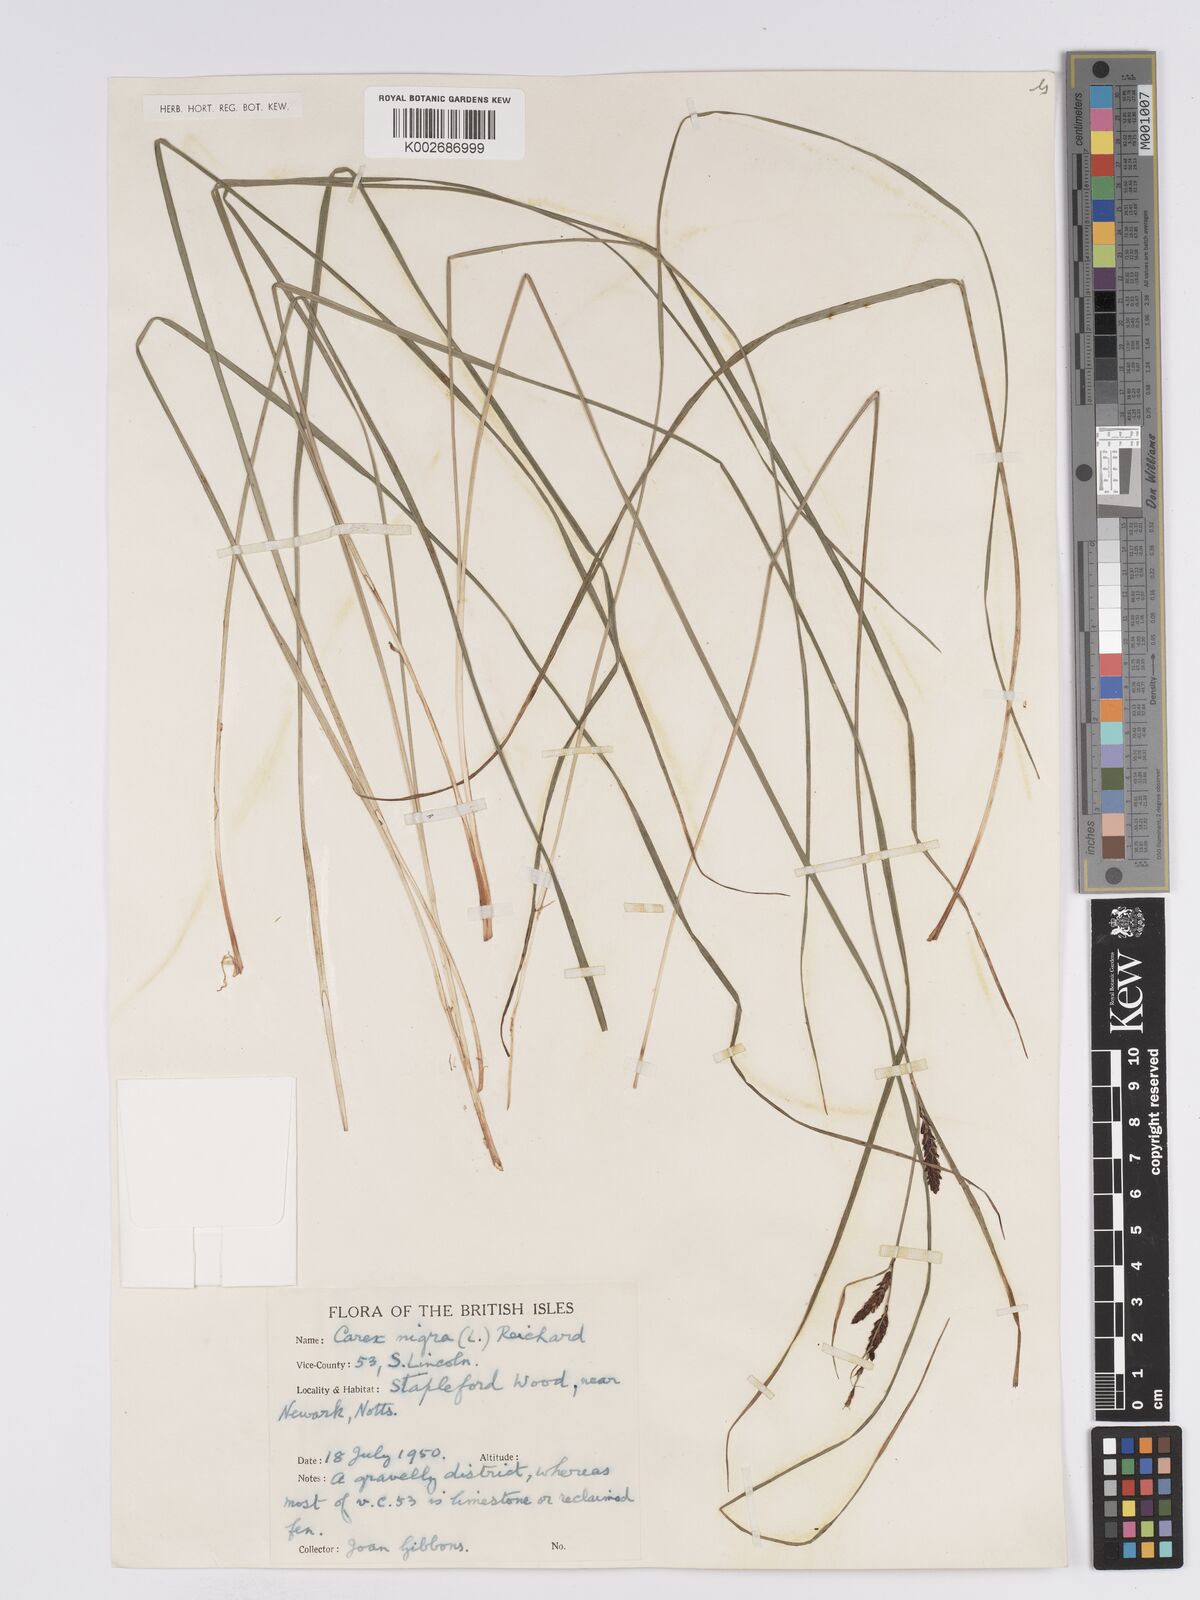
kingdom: Plantae
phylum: Tracheophyta
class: Liliopsida
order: Poales
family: Cyperaceae
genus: Carex
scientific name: Carex nigra
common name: Common sedge
